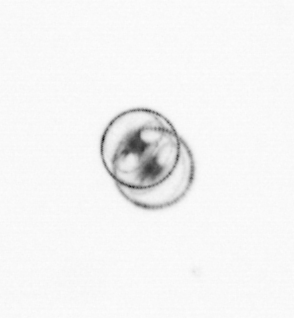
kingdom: Chromista
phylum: Myzozoa
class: Dinophyceae
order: Noctilucales
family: Noctilucaceae
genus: Noctiluca
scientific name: Noctiluca scintillans
